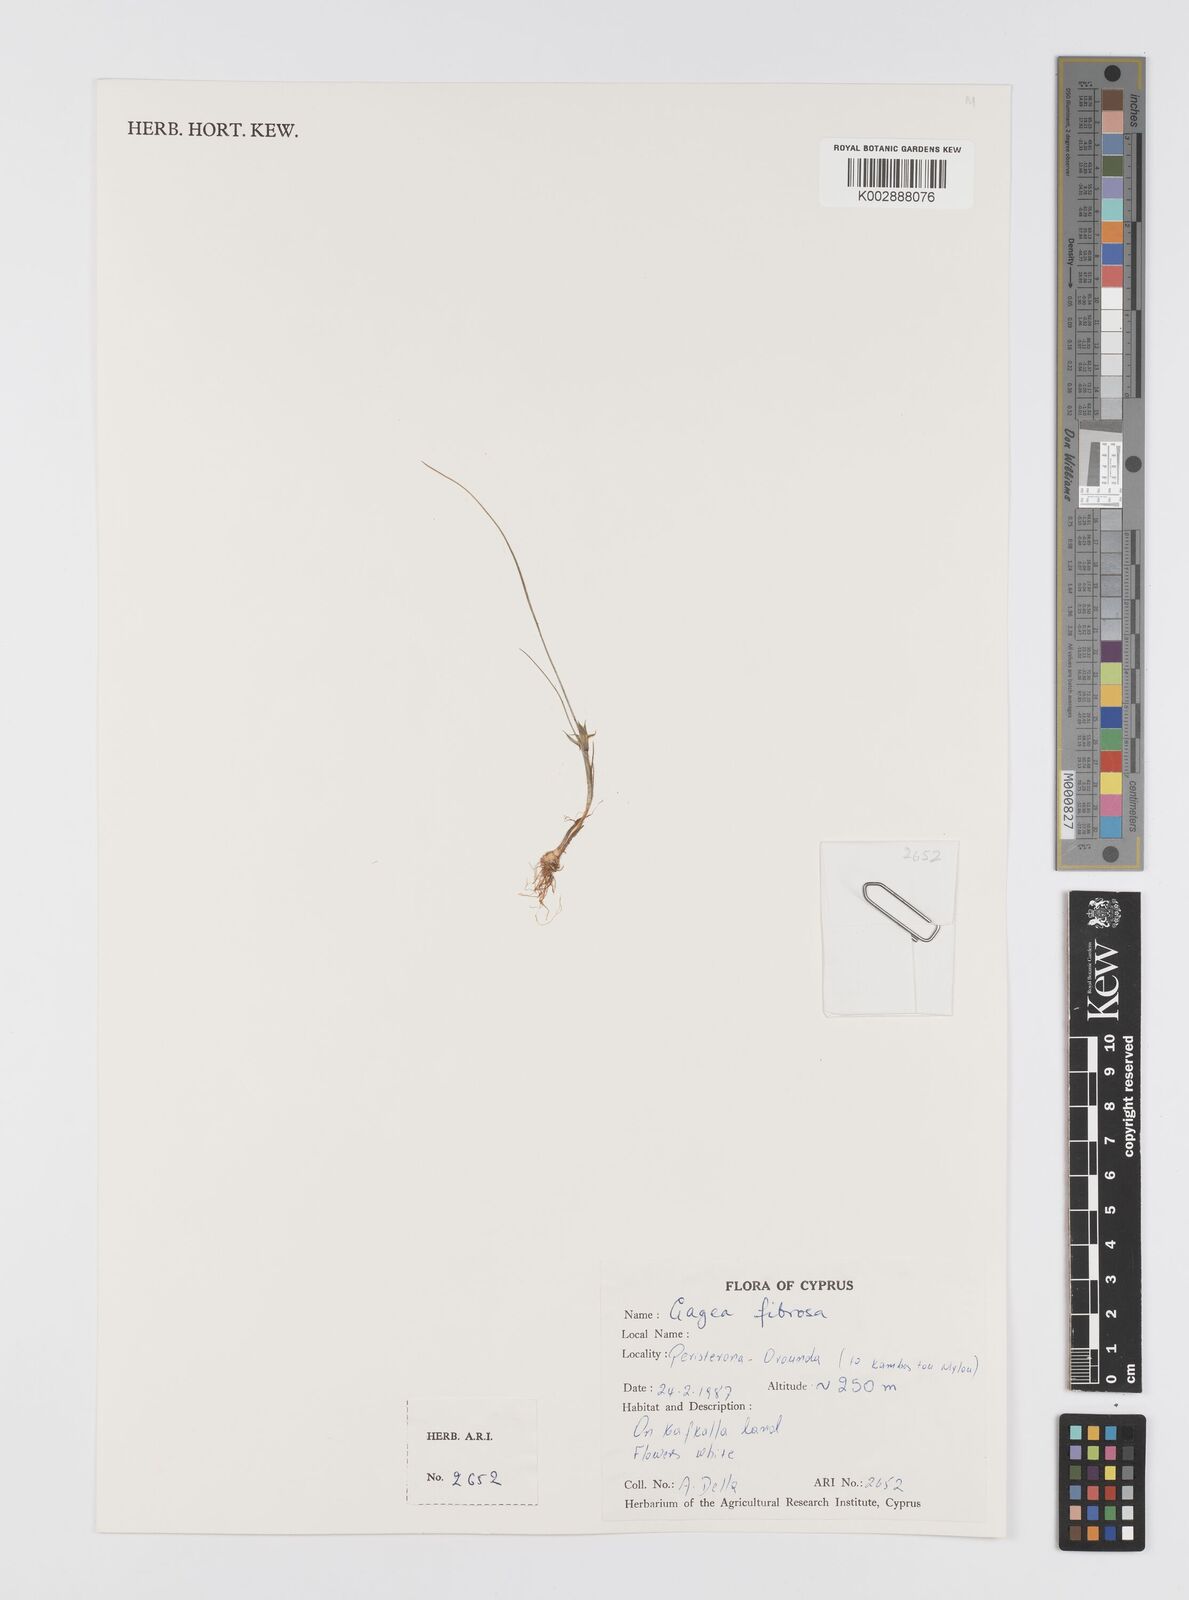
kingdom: Plantae
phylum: Tracheophyta
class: Liliopsida
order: Liliales
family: Liliaceae
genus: Gagea
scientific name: Gagea reticulata
